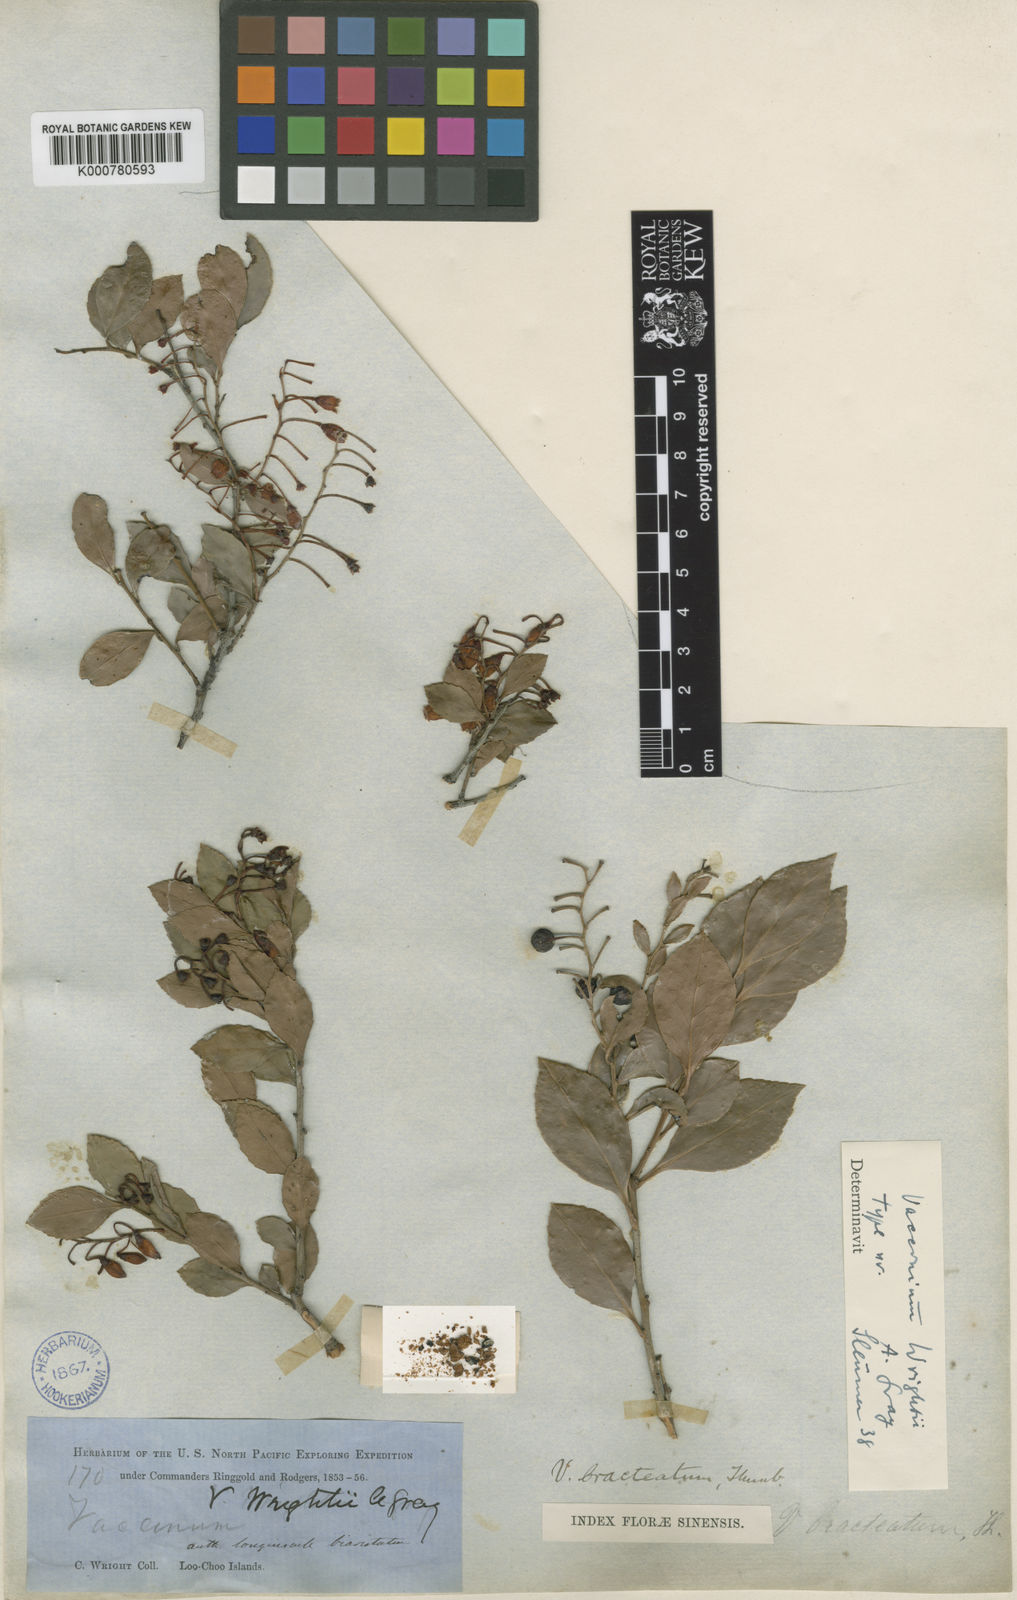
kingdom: Plantae
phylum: Tracheophyta
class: Magnoliopsida
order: Ericales
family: Ericaceae
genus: Vaccinium
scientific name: Vaccinium wrightii
